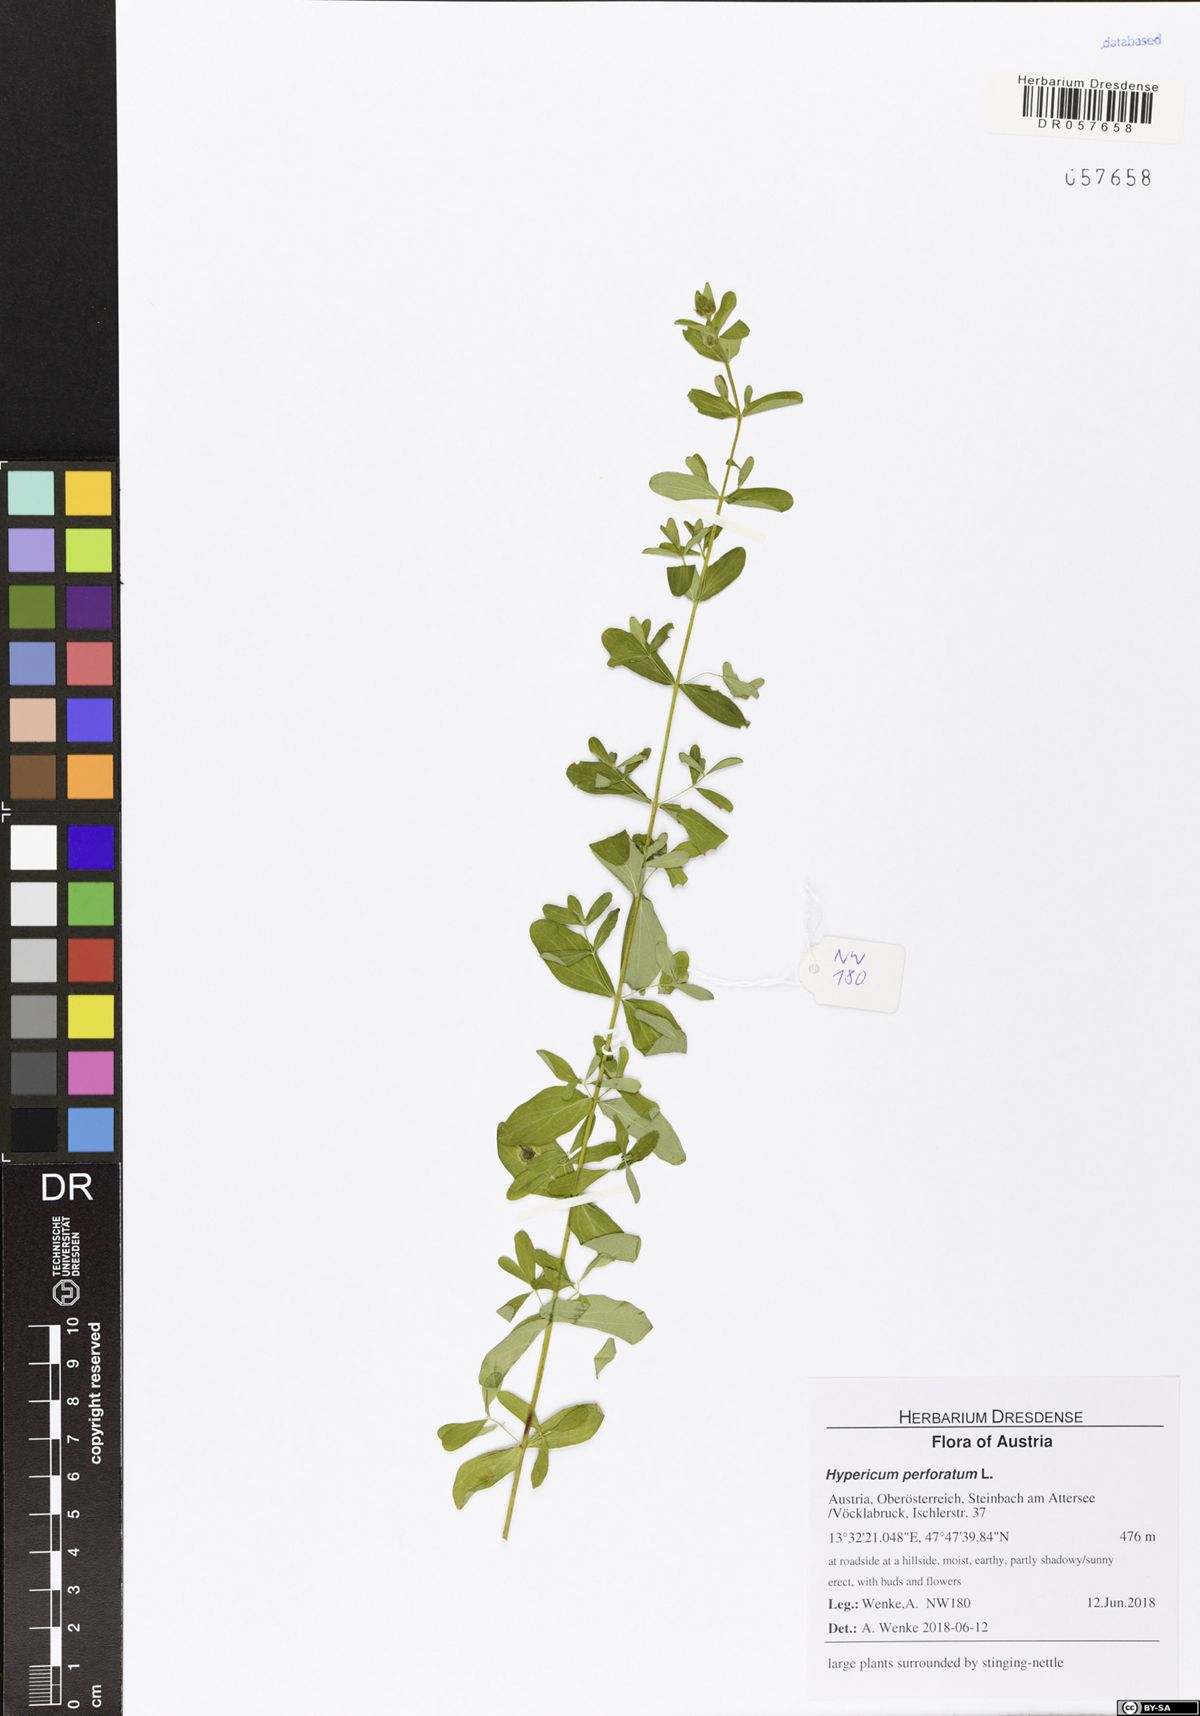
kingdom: Plantae
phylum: Tracheophyta
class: Magnoliopsida
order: Malpighiales
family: Hypericaceae
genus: Hypericum
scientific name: Hypericum perforatum
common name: Common st. johnswort
